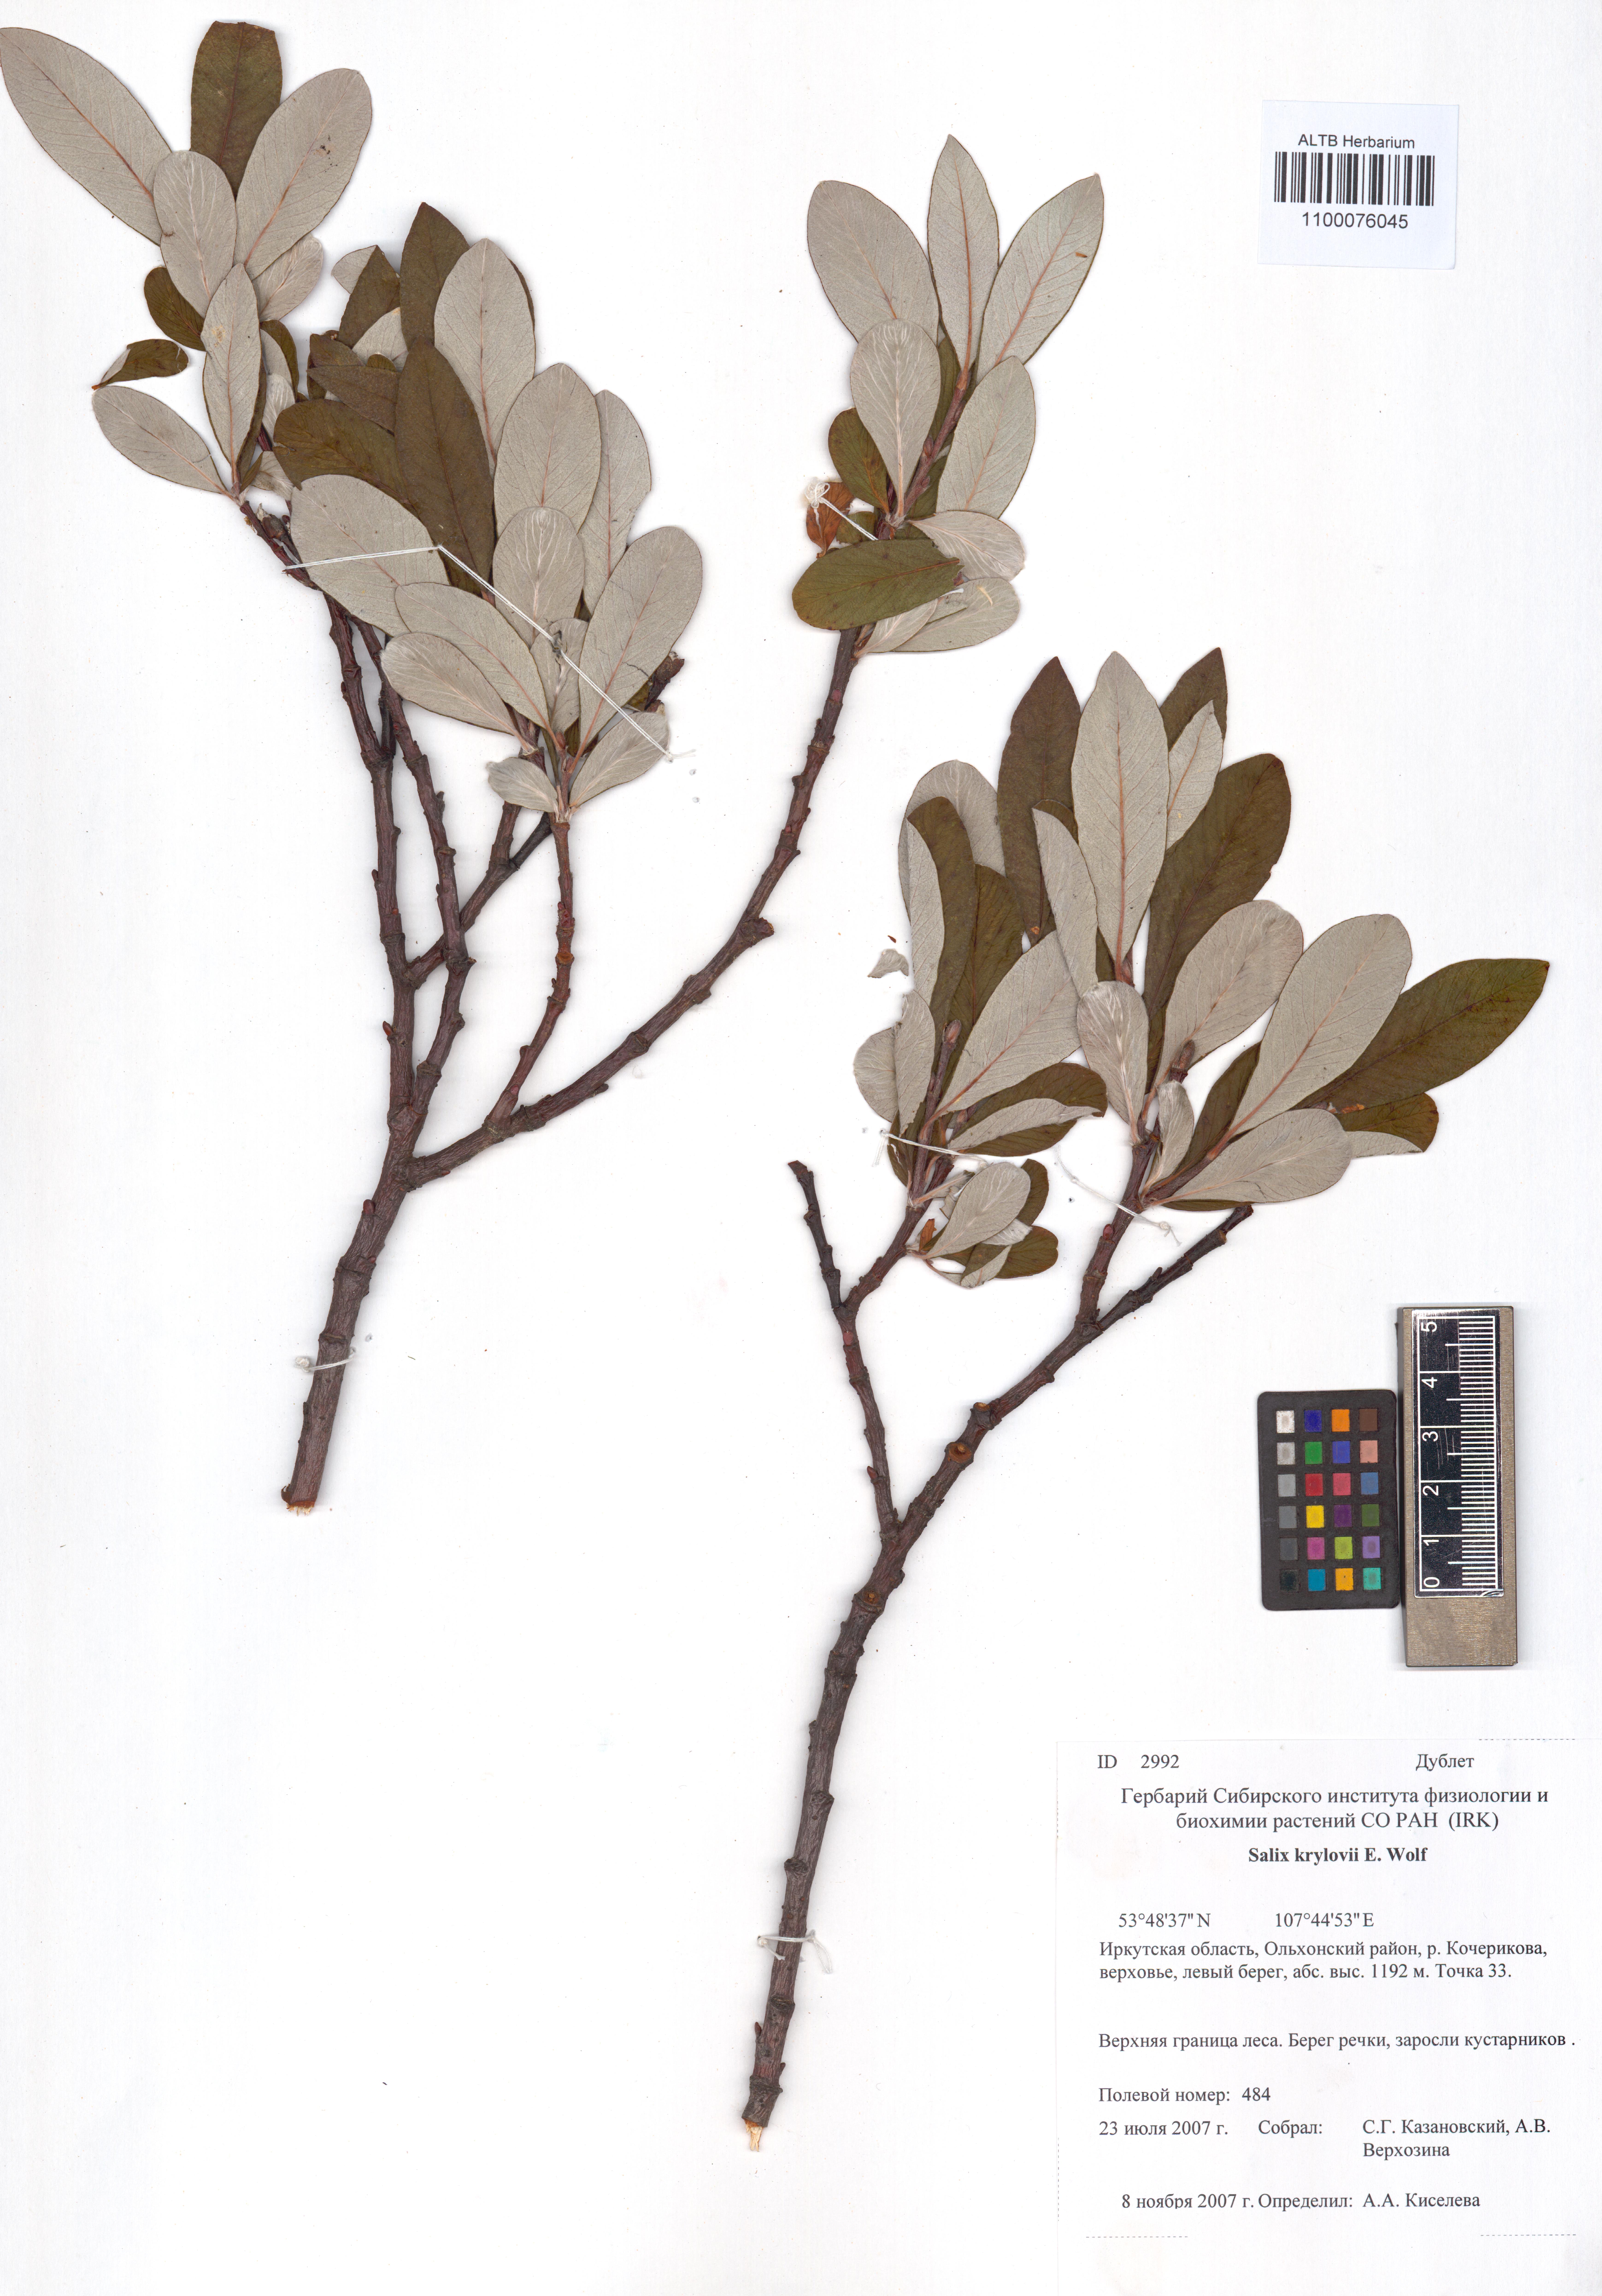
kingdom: Plantae
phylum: Tracheophyta
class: Magnoliopsida
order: Malpighiales
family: Salicaceae
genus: Salix
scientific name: Salix krylovii
